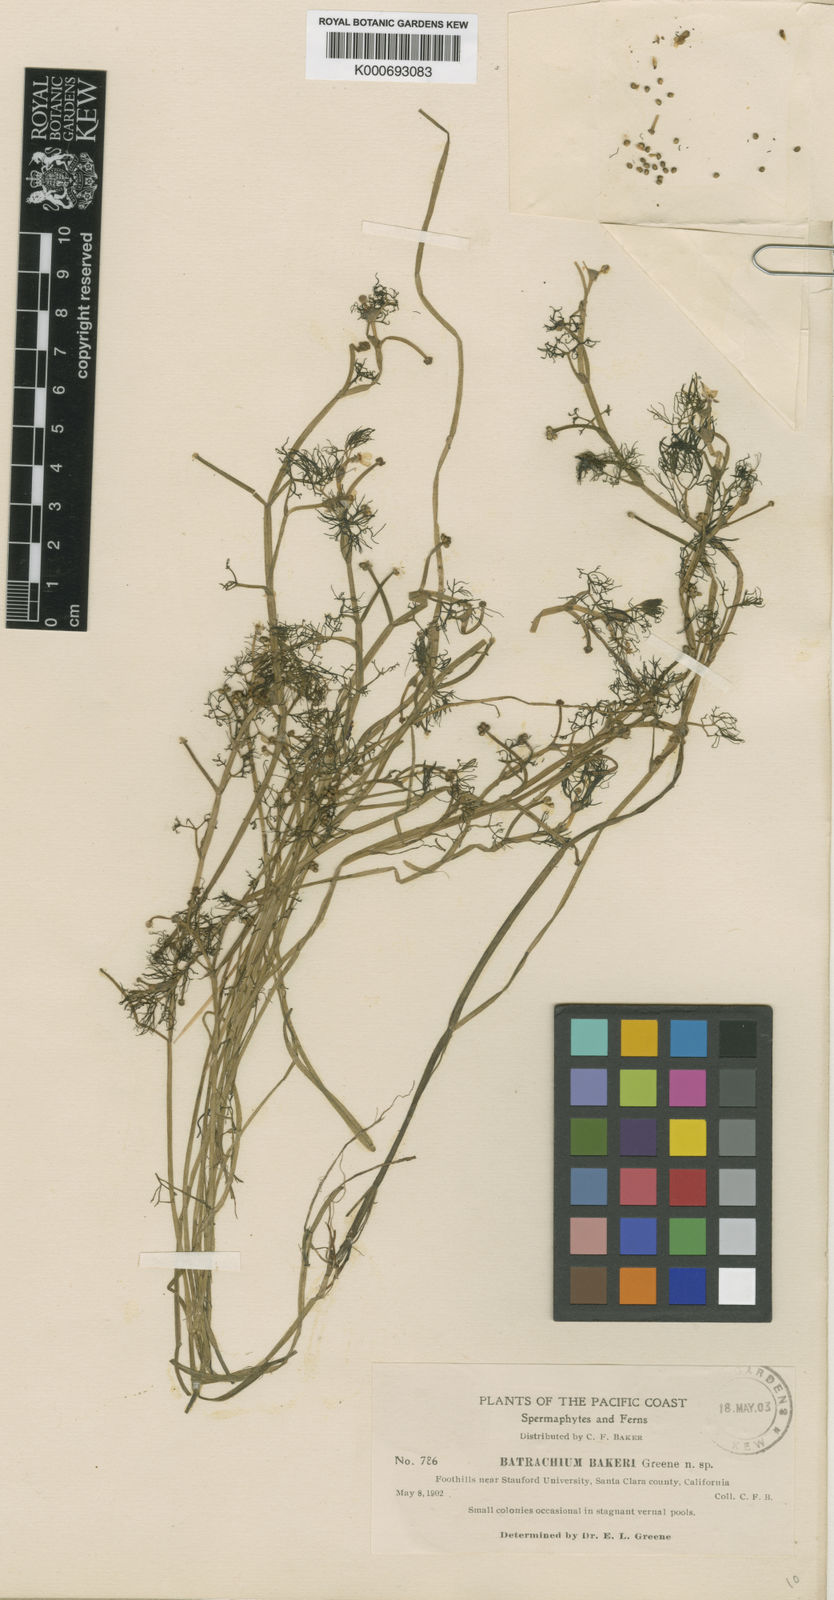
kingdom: Plantae
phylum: Tracheophyta
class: Magnoliopsida
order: Ranunculales
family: Ranunculaceae
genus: Ranunculus
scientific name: Ranunculus
